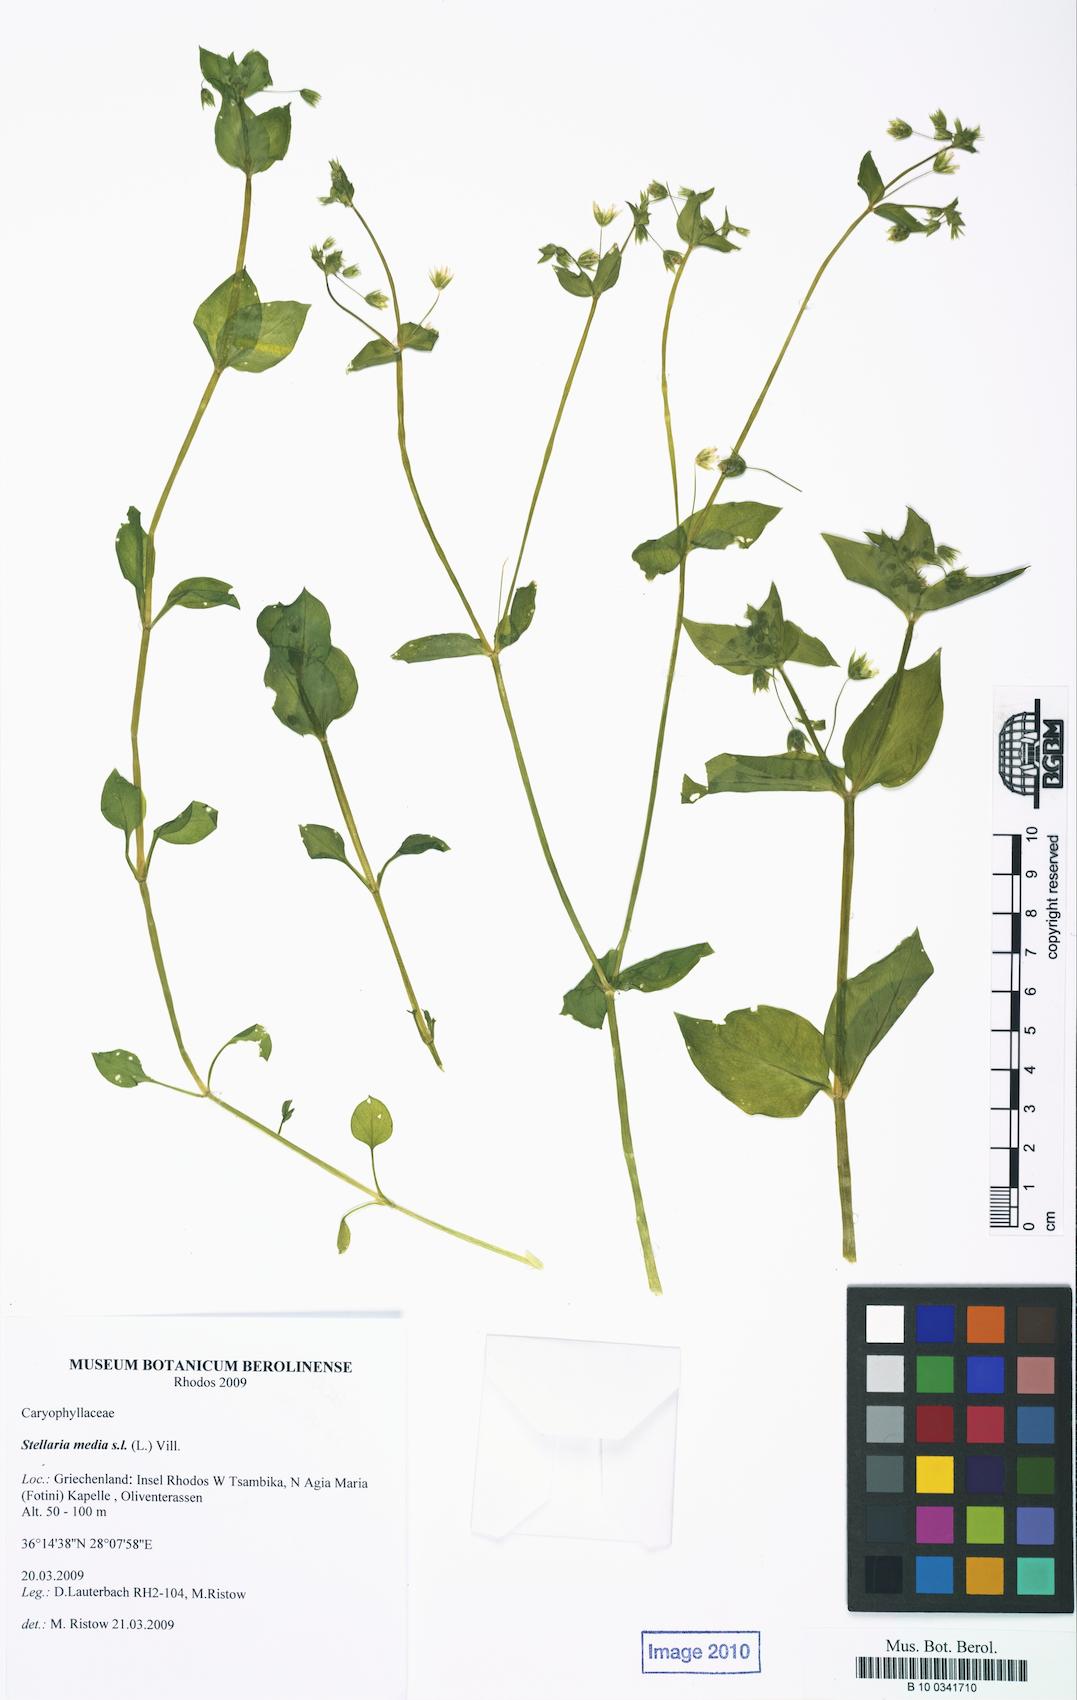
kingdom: Plantae
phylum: Tracheophyta
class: Magnoliopsida
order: Caryophyllales
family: Caryophyllaceae
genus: Stellaria
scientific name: Stellaria media
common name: Common chickweed
